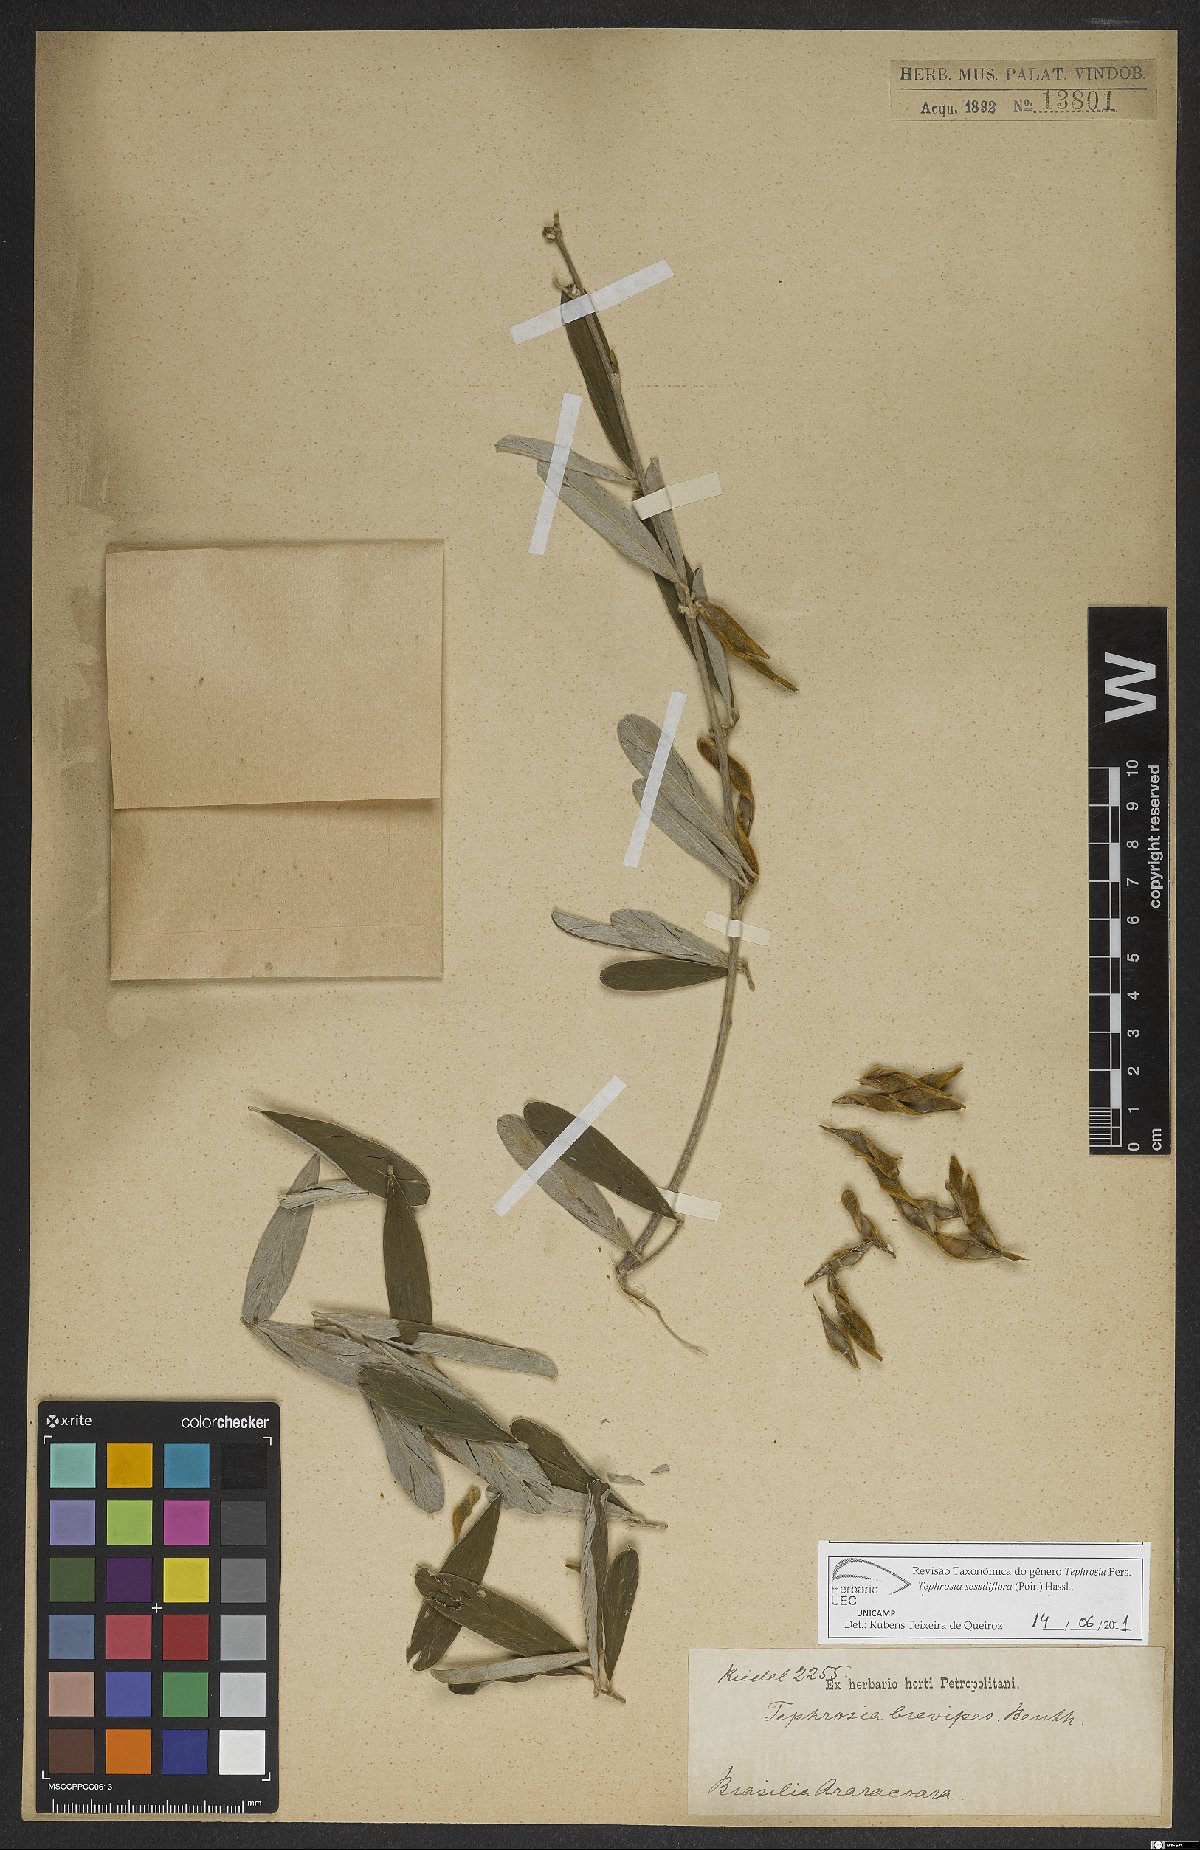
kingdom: Plantae
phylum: Tracheophyta
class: Magnoliopsida
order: Fabales
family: Fabaceae
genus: Tephrosia
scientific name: Tephrosia sessiliflora
